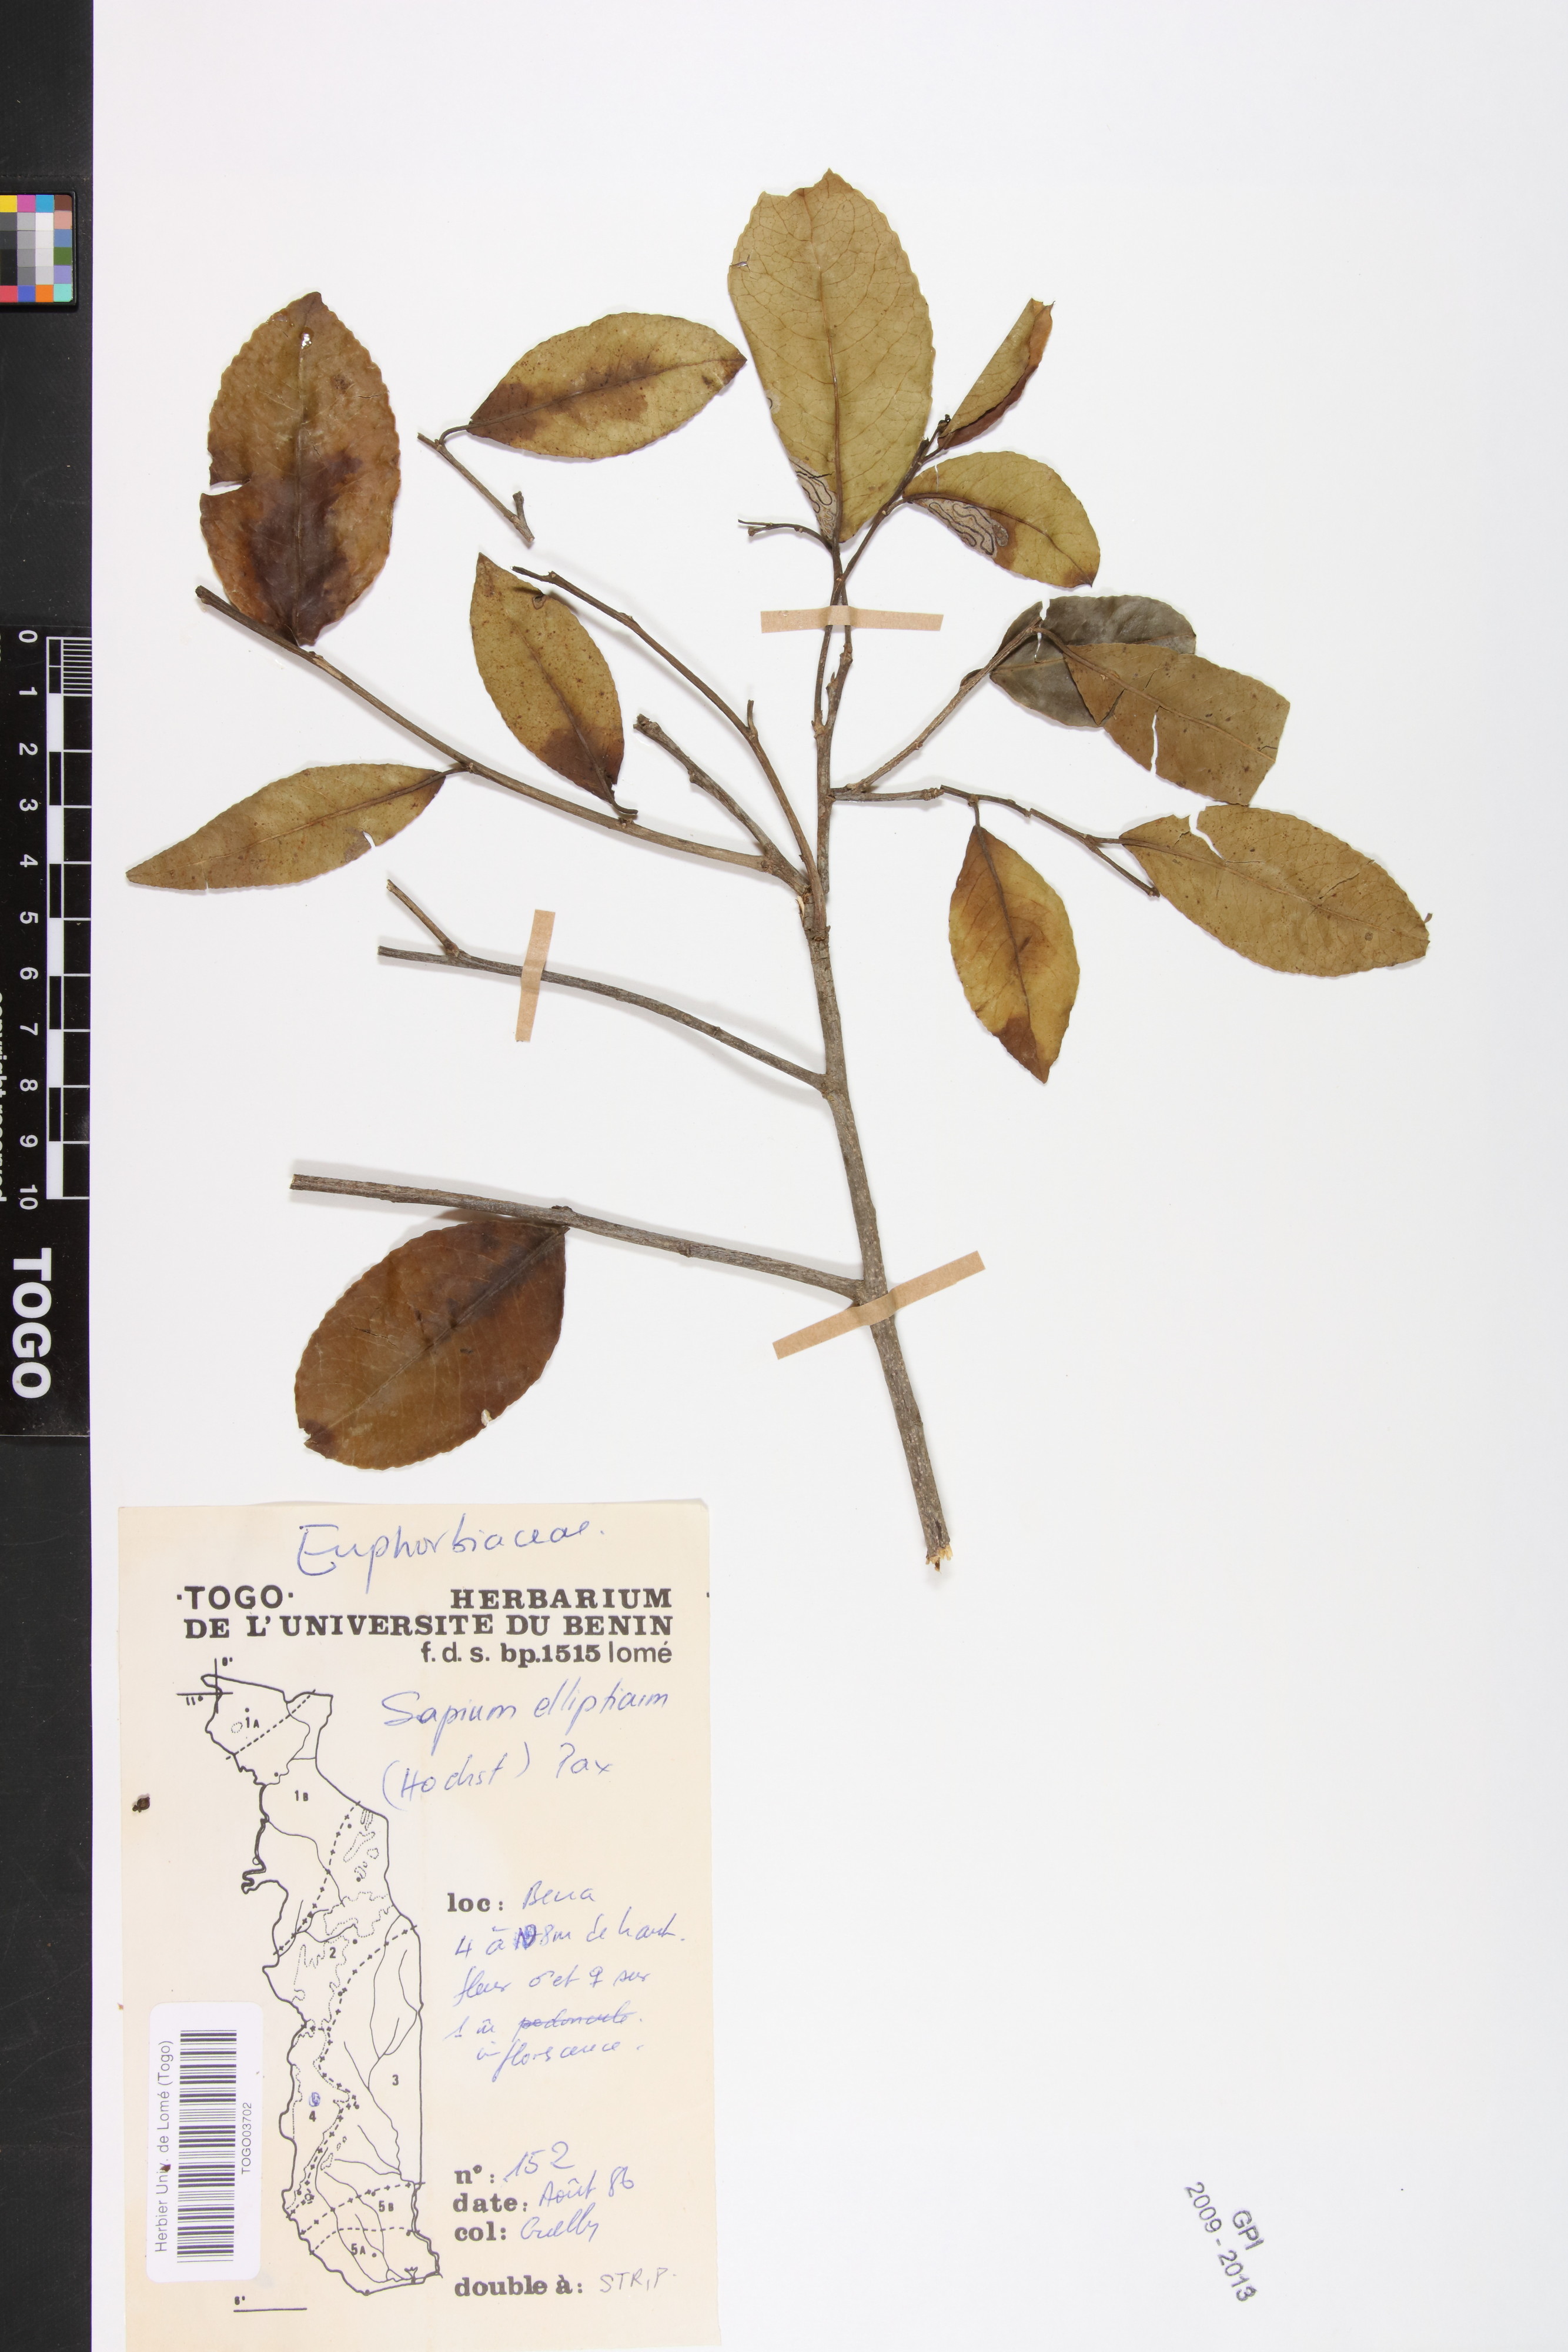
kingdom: Plantae
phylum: Tracheophyta
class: Magnoliopsida
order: Malpighiales
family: Euphorbiaceae
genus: Shirakiopsis
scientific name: Shirakiopsis elliptica
